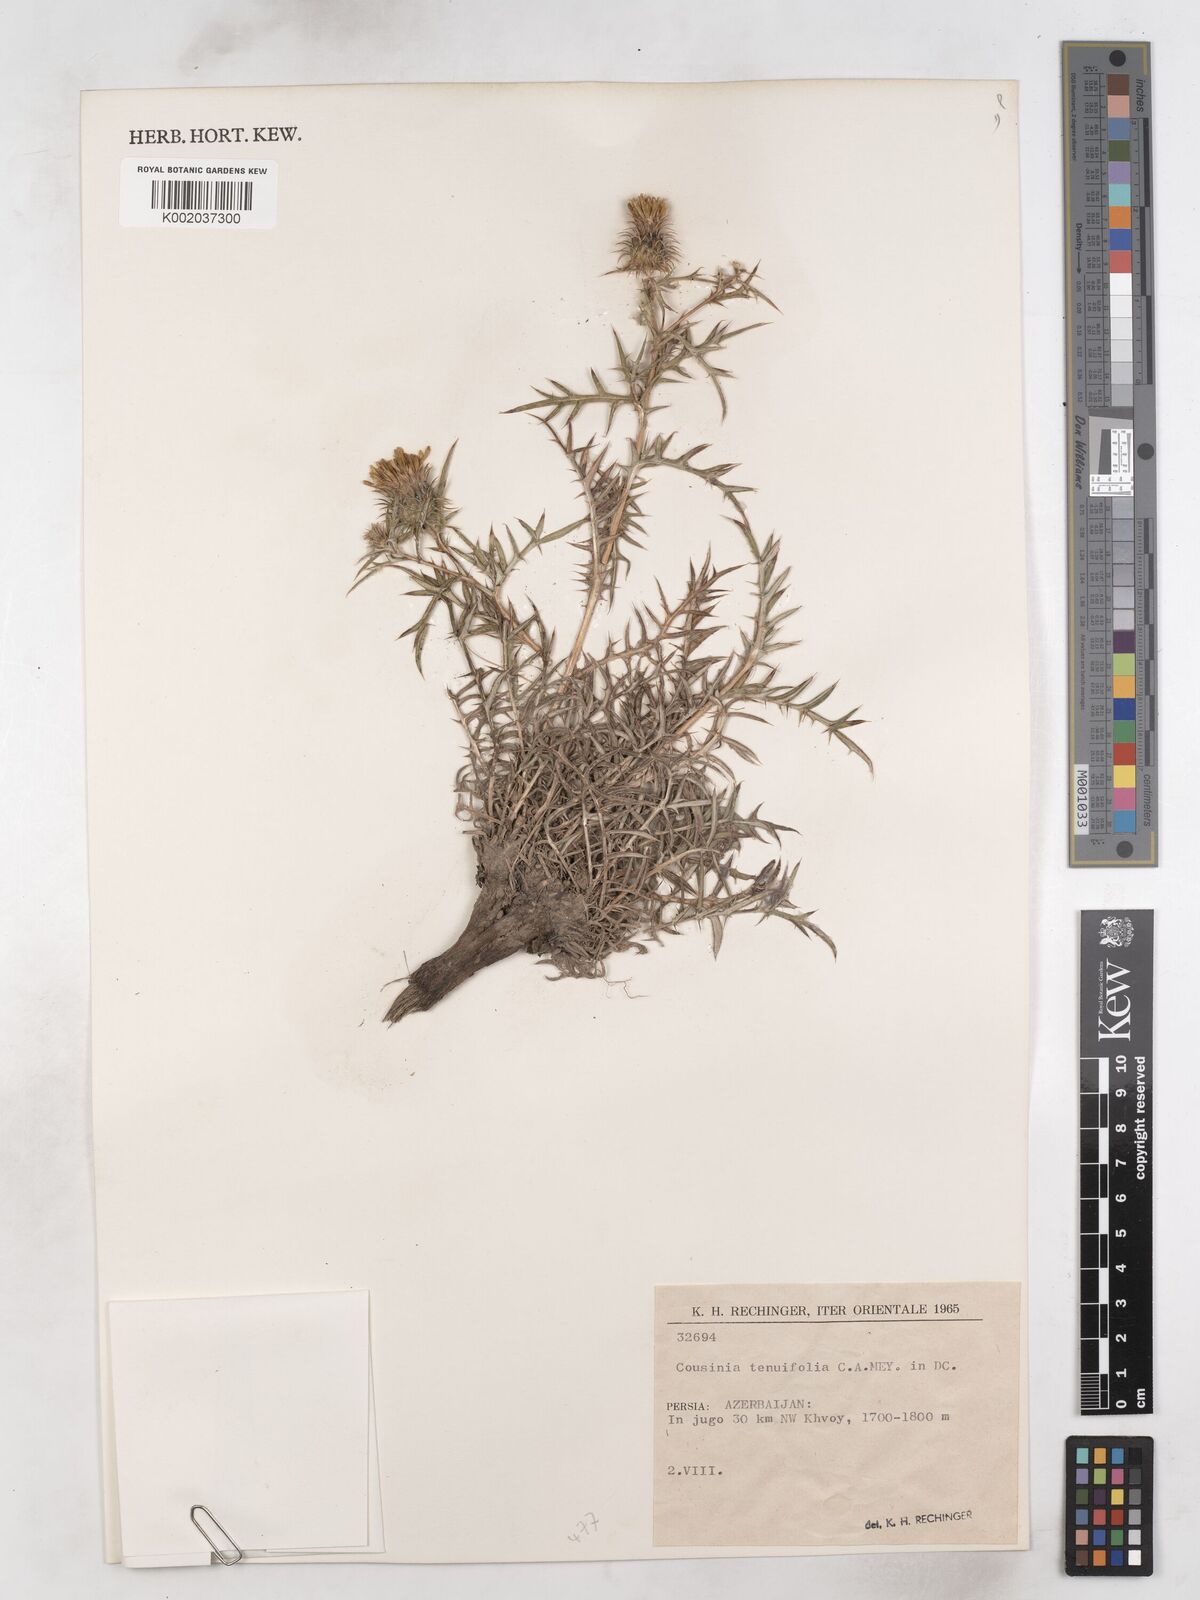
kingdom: Plantae
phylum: Tracheophyta
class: Magnoliopsida
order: Asterales
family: Asteraceae
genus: Cousinia
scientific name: Cousinia urumiensis
